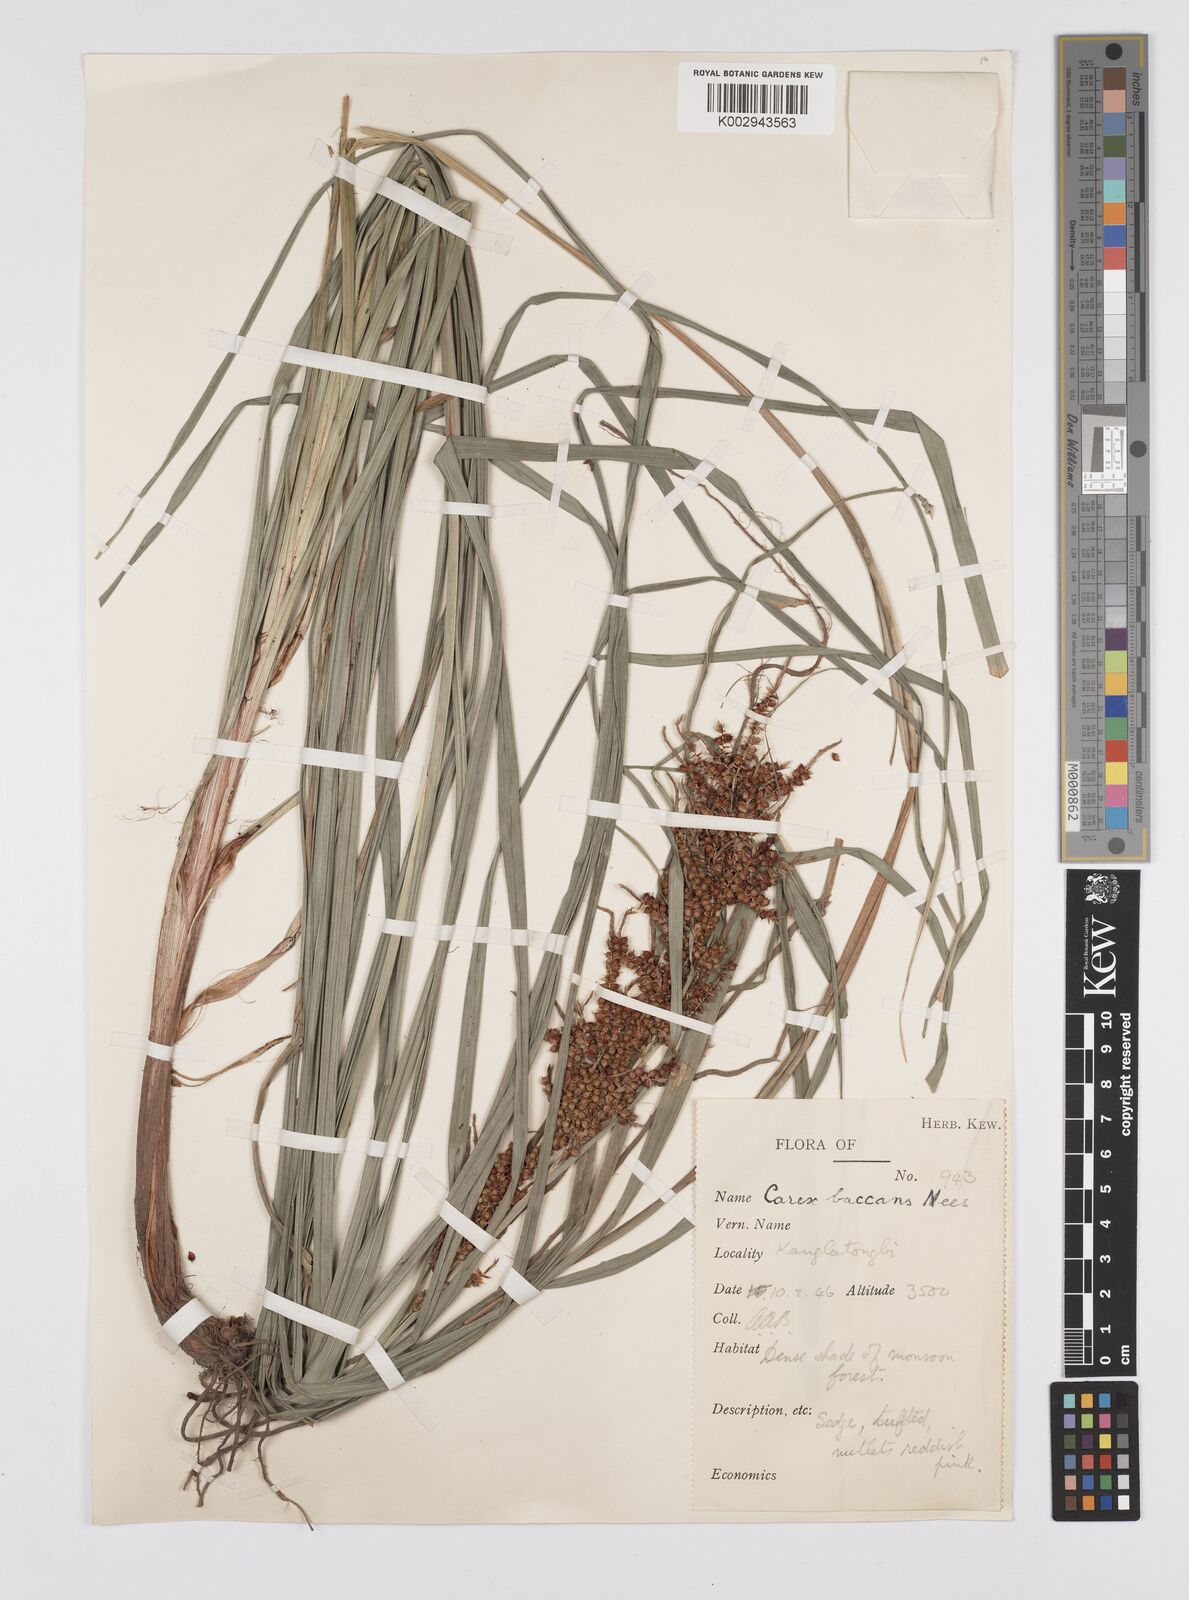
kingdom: Plantae
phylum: Tracheophyta
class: Liliopsida
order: Poales
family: Cyperaceae
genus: Carex
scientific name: Carex baccans
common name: Crimson seeded sedge
